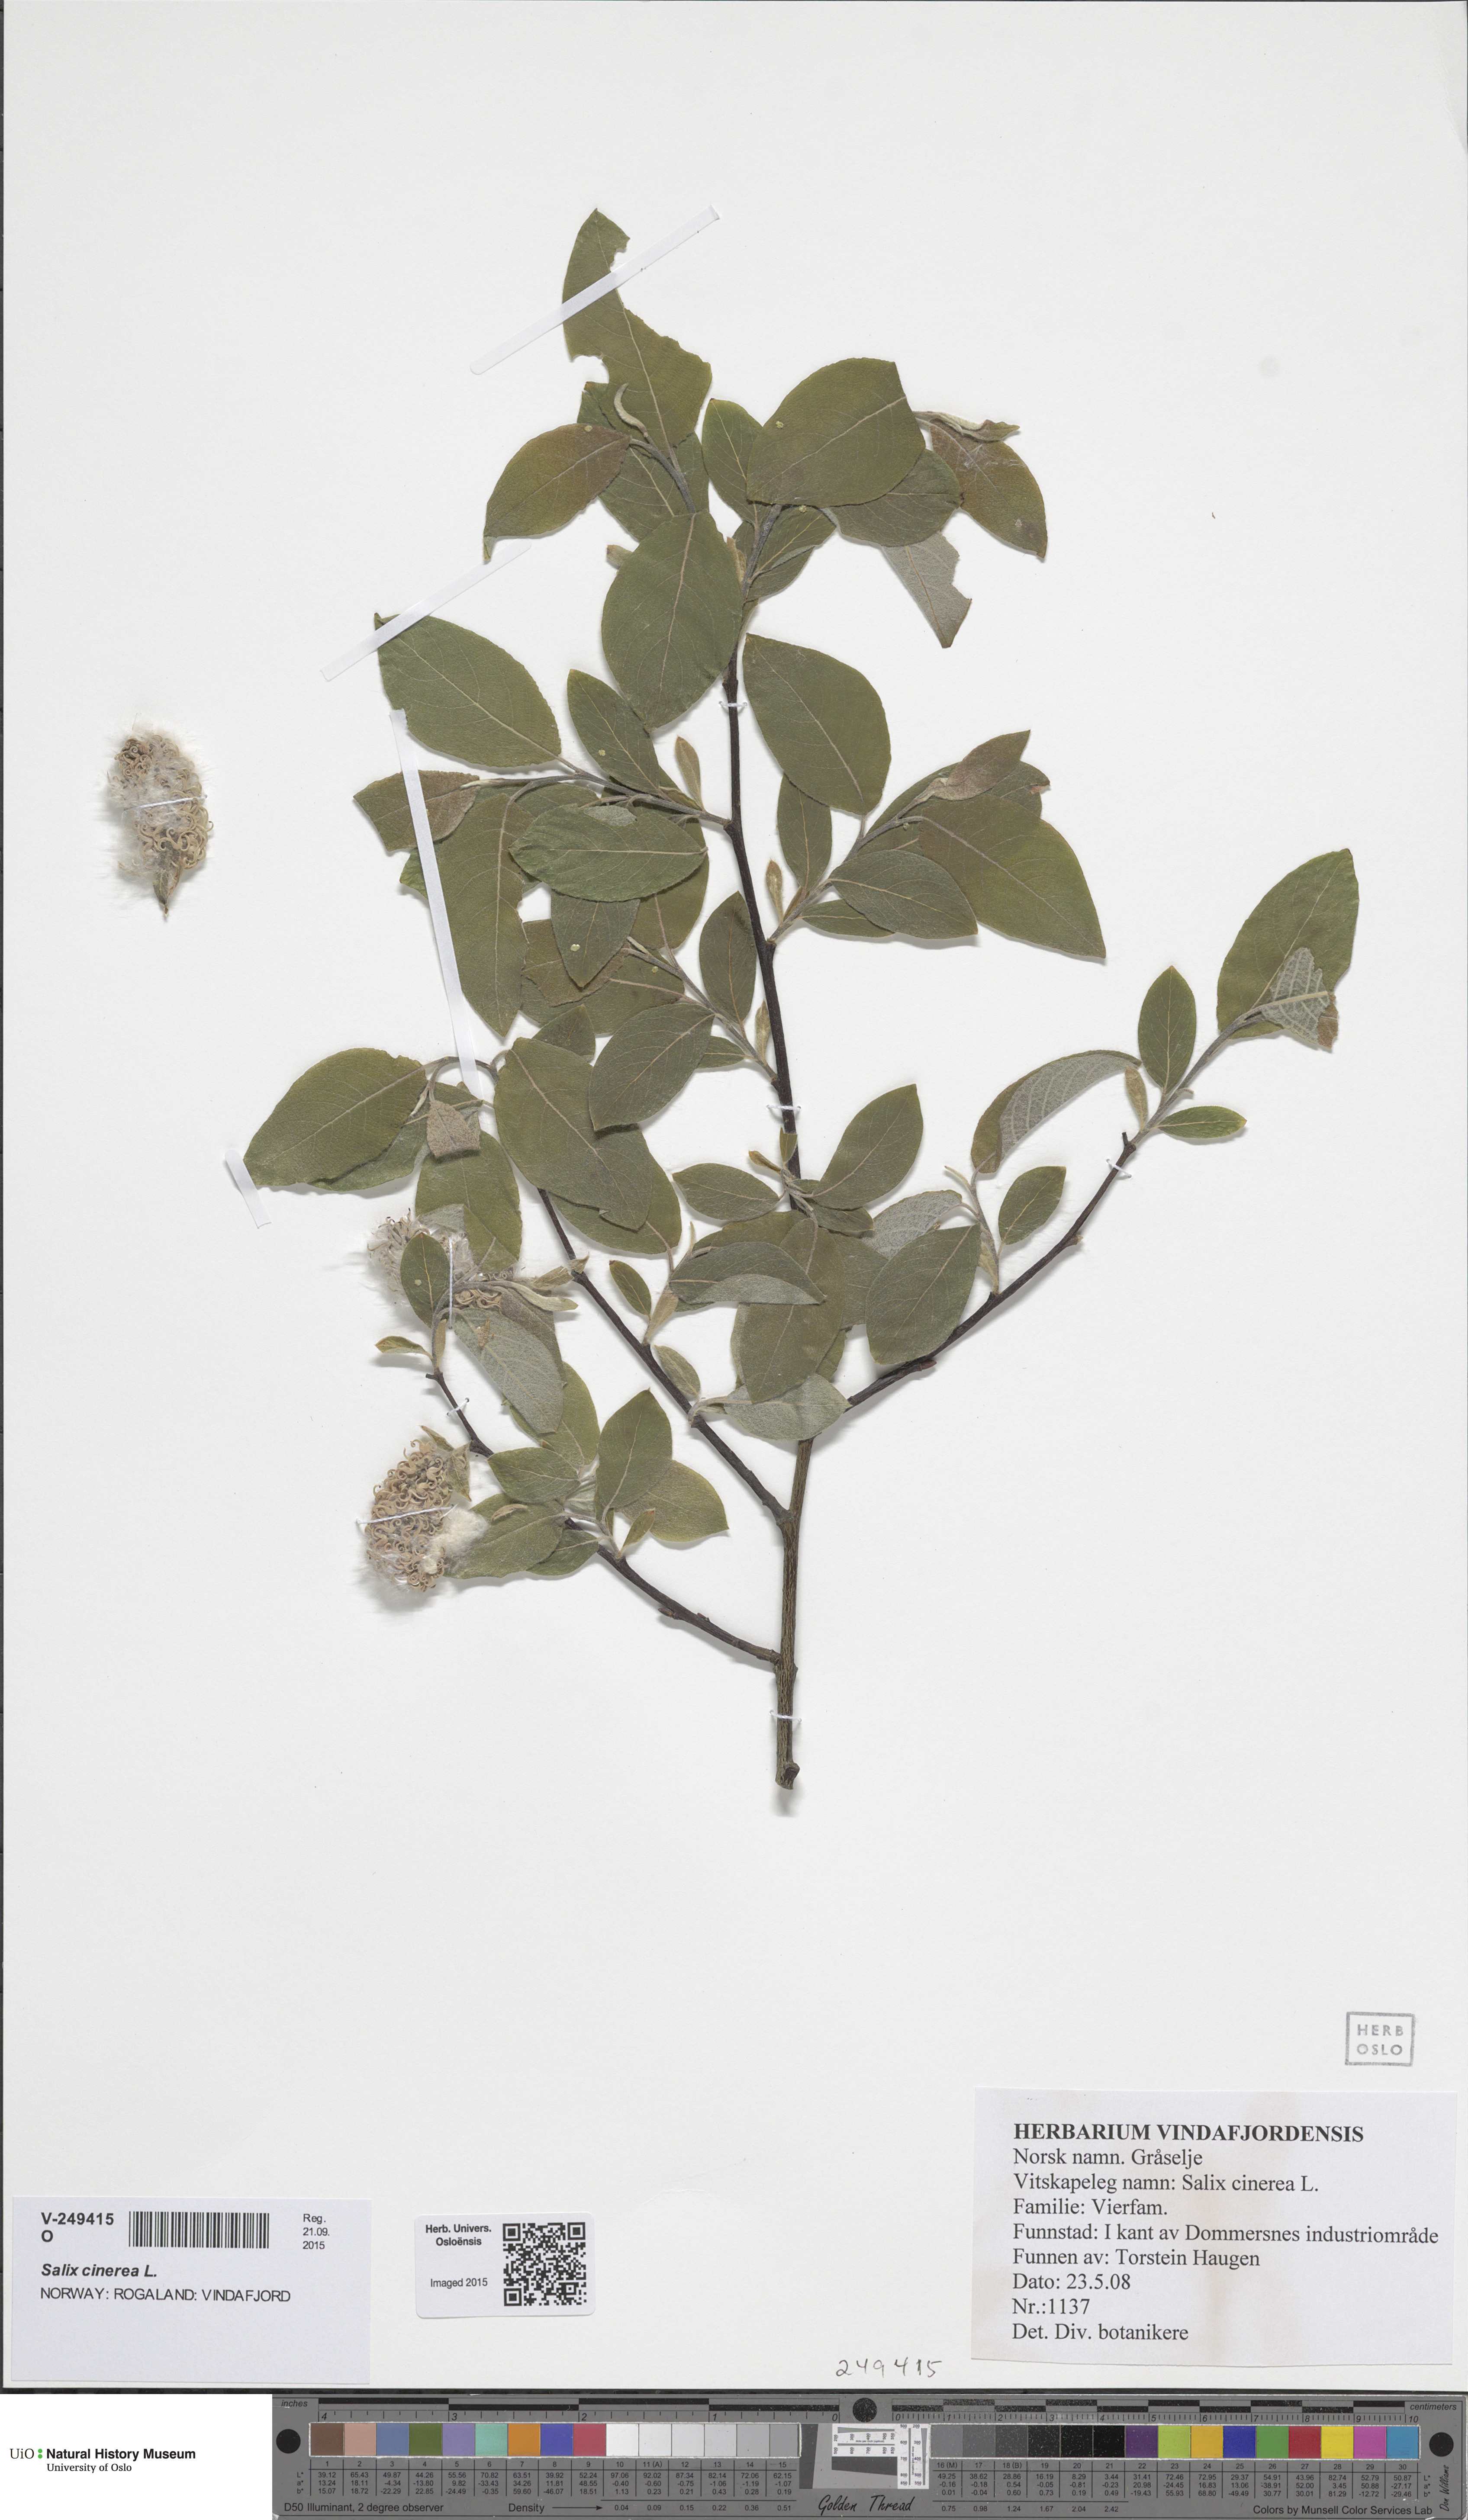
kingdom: Plantae
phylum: Tracheophyta
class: Magnoliopsida
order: Malpighiales
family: Salicaceae
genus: Salix
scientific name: Salix caprea
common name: Goat willow
